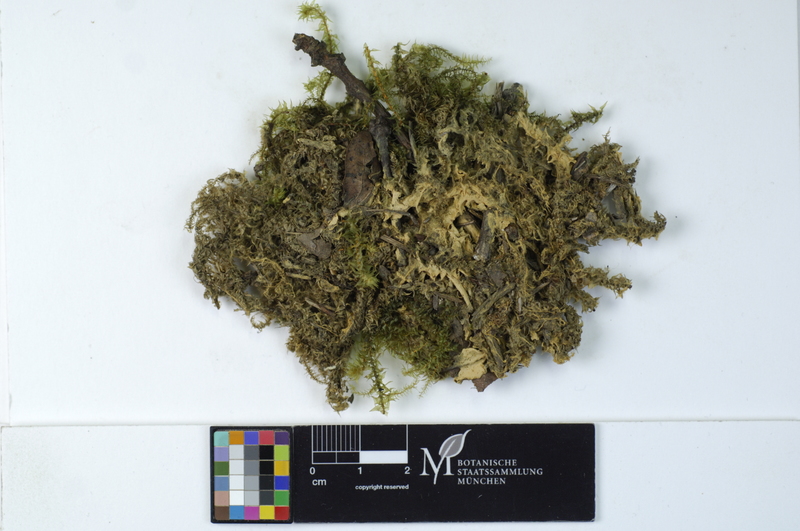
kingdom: Fungi
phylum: Basidiomycota
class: Agaricomycetes
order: Atheliales
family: Atheliaceae
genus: Amphinema
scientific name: Amphinema byssoides
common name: Cratered duster
